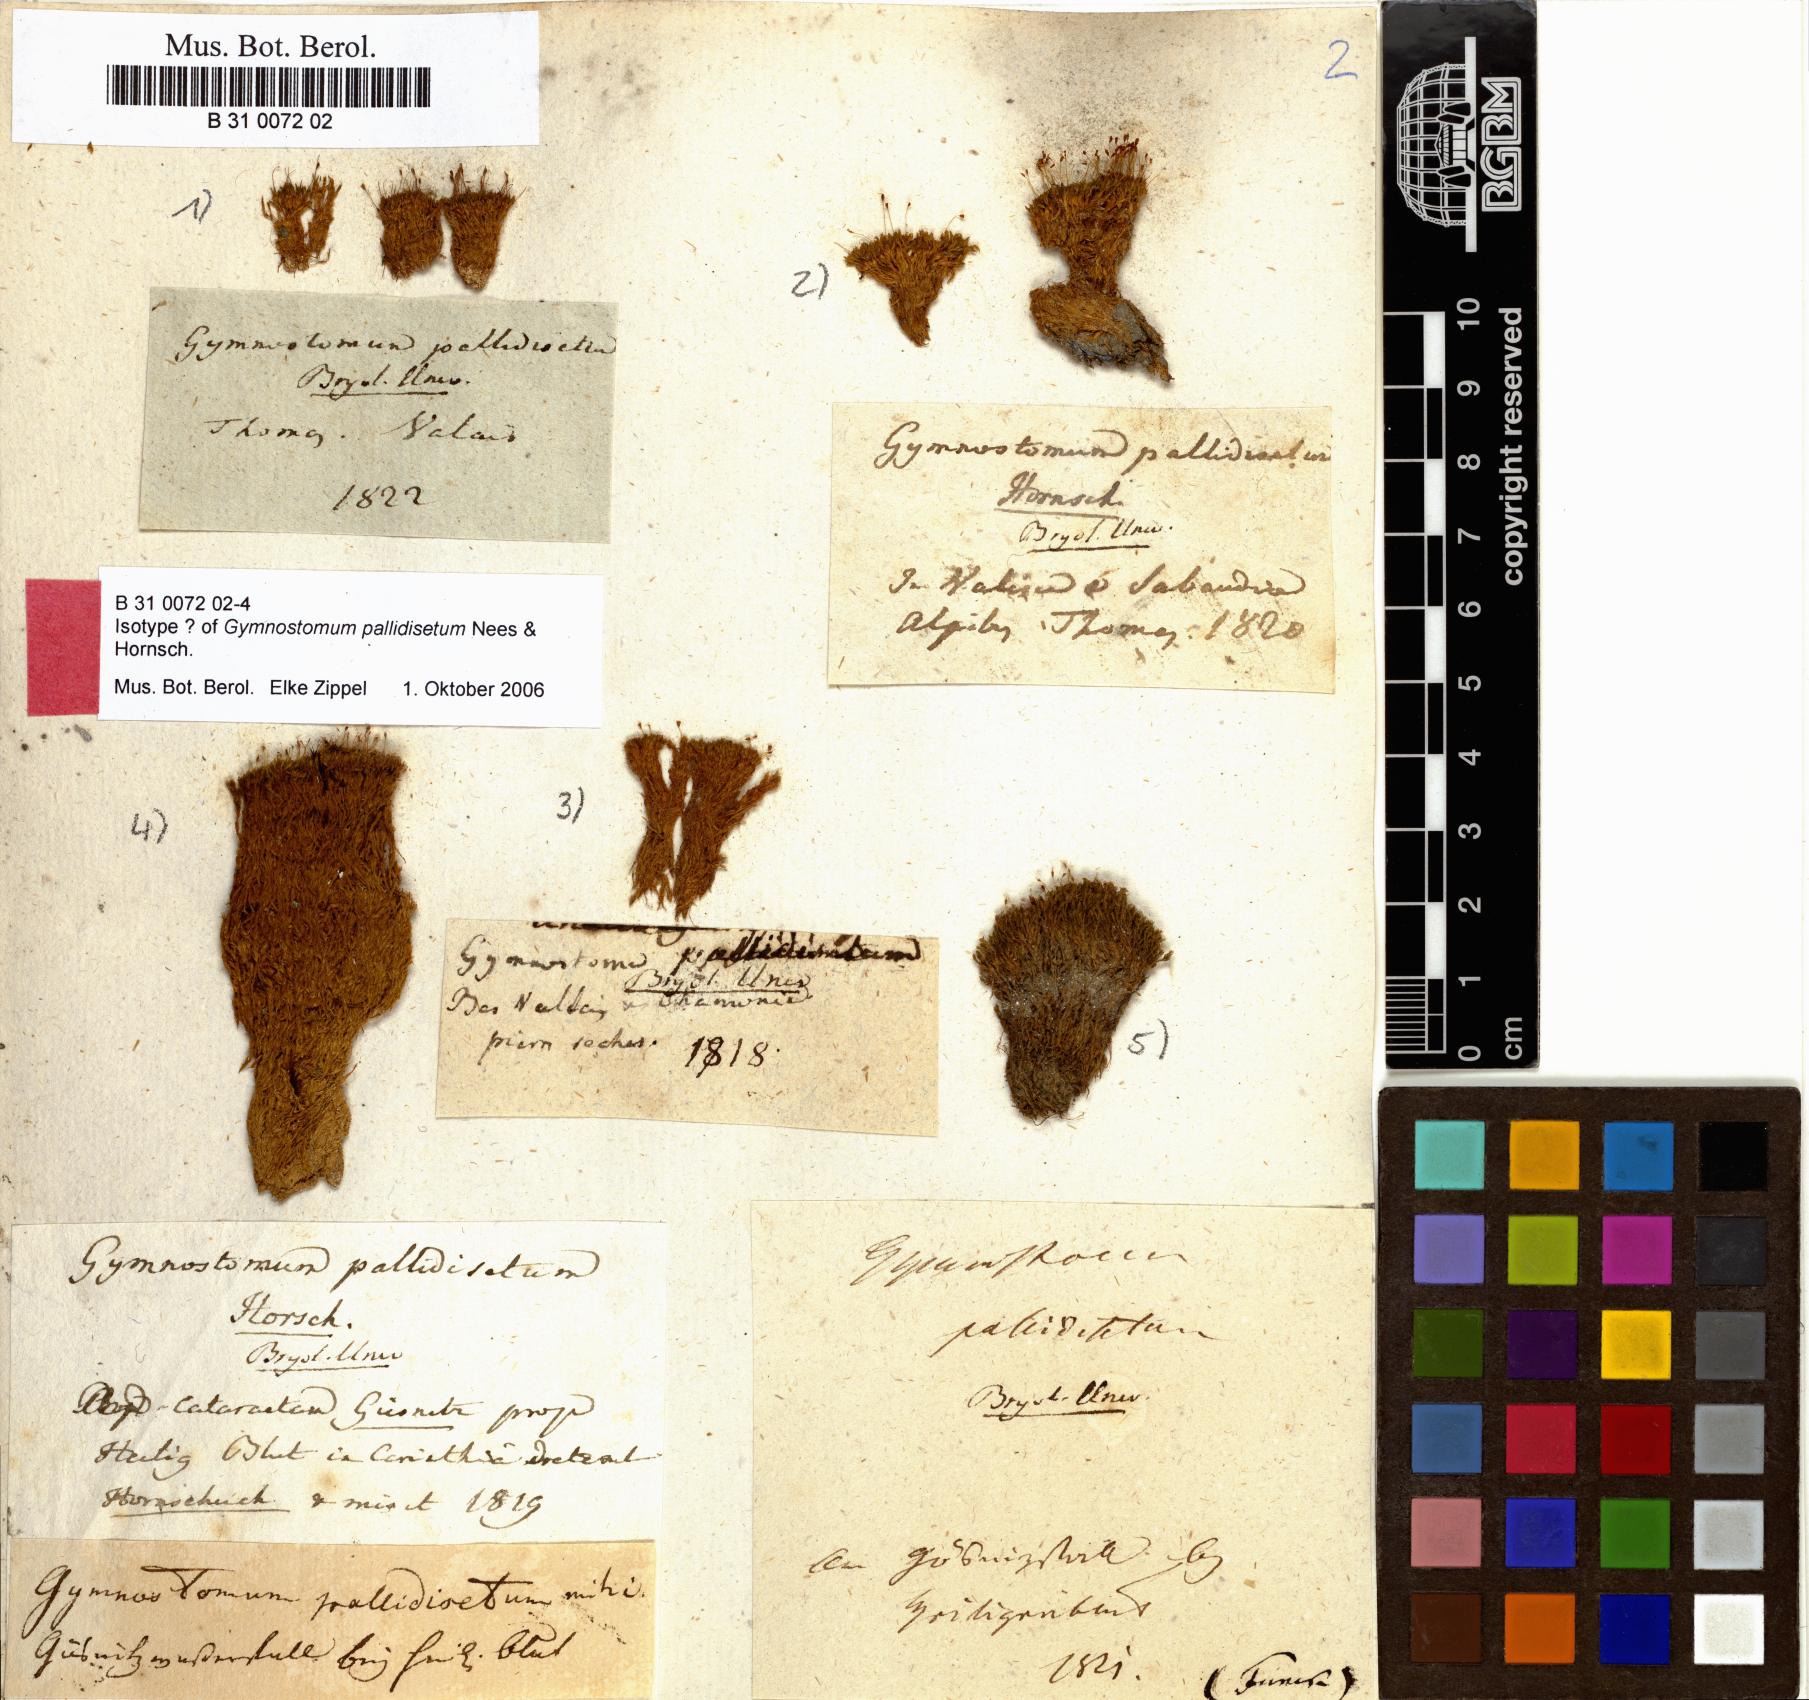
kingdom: Plantae
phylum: Bryophyta
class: Bryopsida
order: Pottiales
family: Pottiaceae
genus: Hymenostylium
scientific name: Hymenostylium recurvirostrum
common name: Hook-beak tufa-moss
